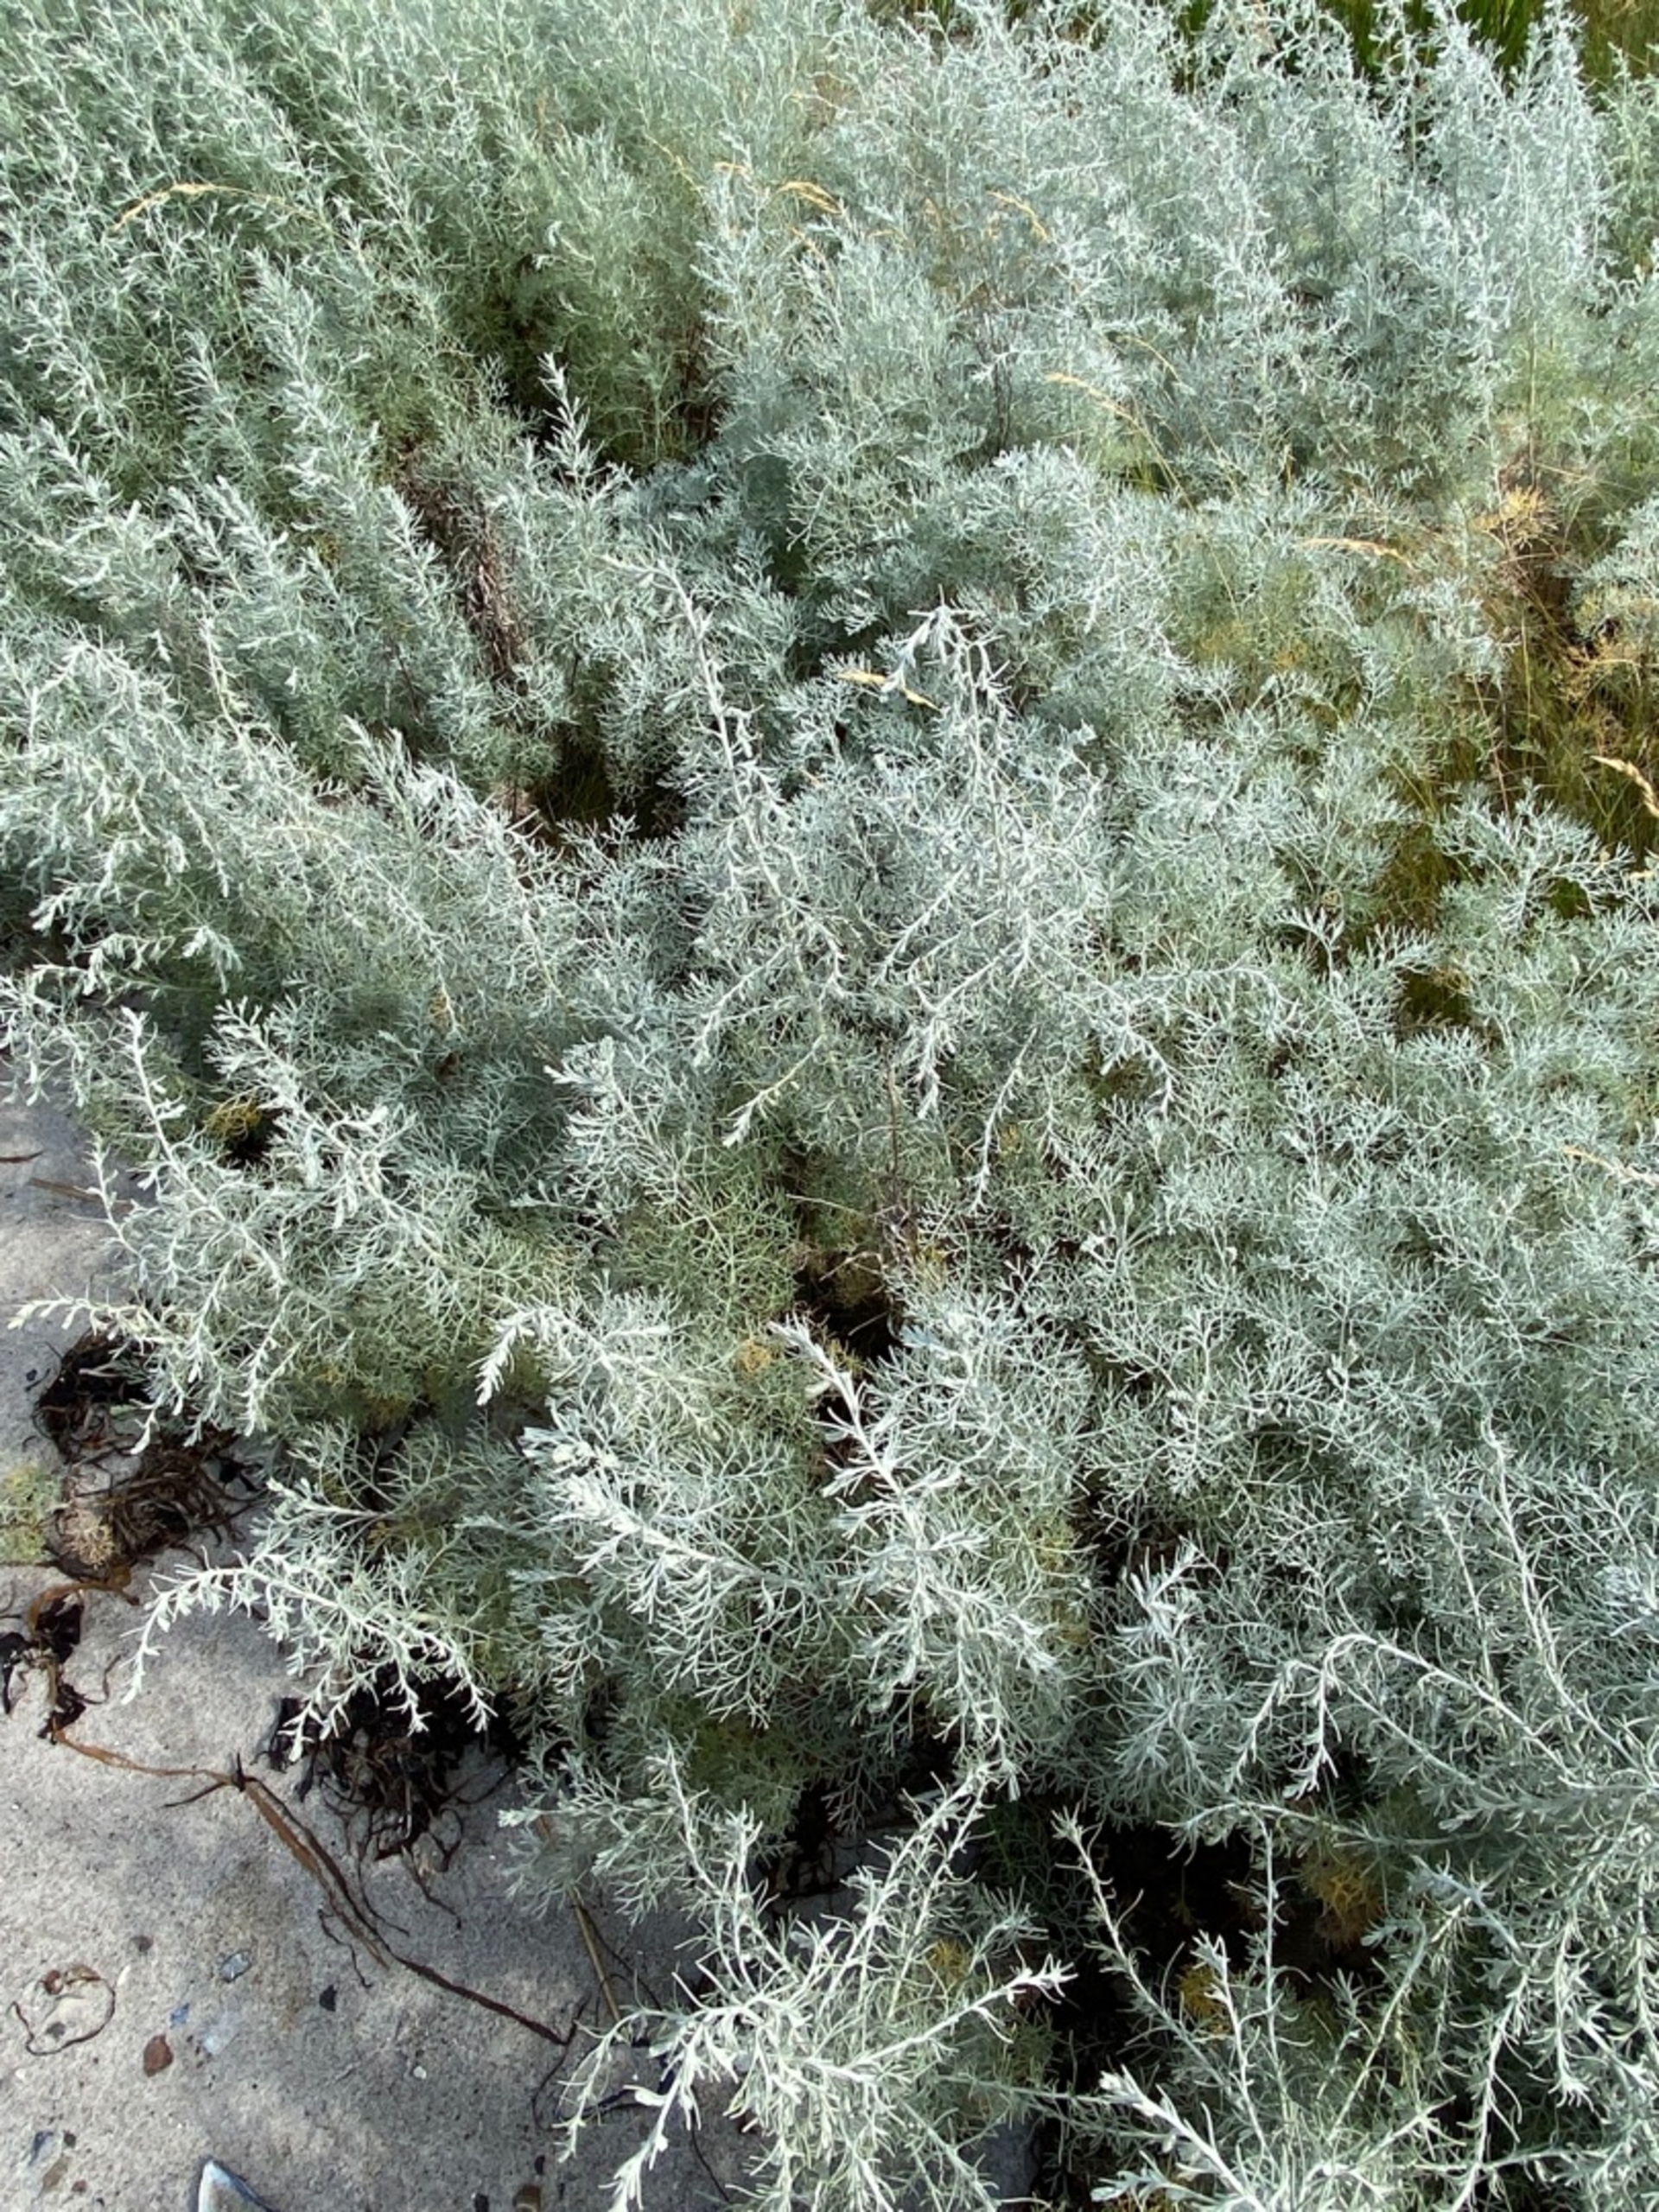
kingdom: Plantae
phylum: Tracheophyta
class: Magnoliopsida
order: Asterales
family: Asteraceae
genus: Artemisia
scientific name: Artemisia maritima
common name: Strandmalurt
